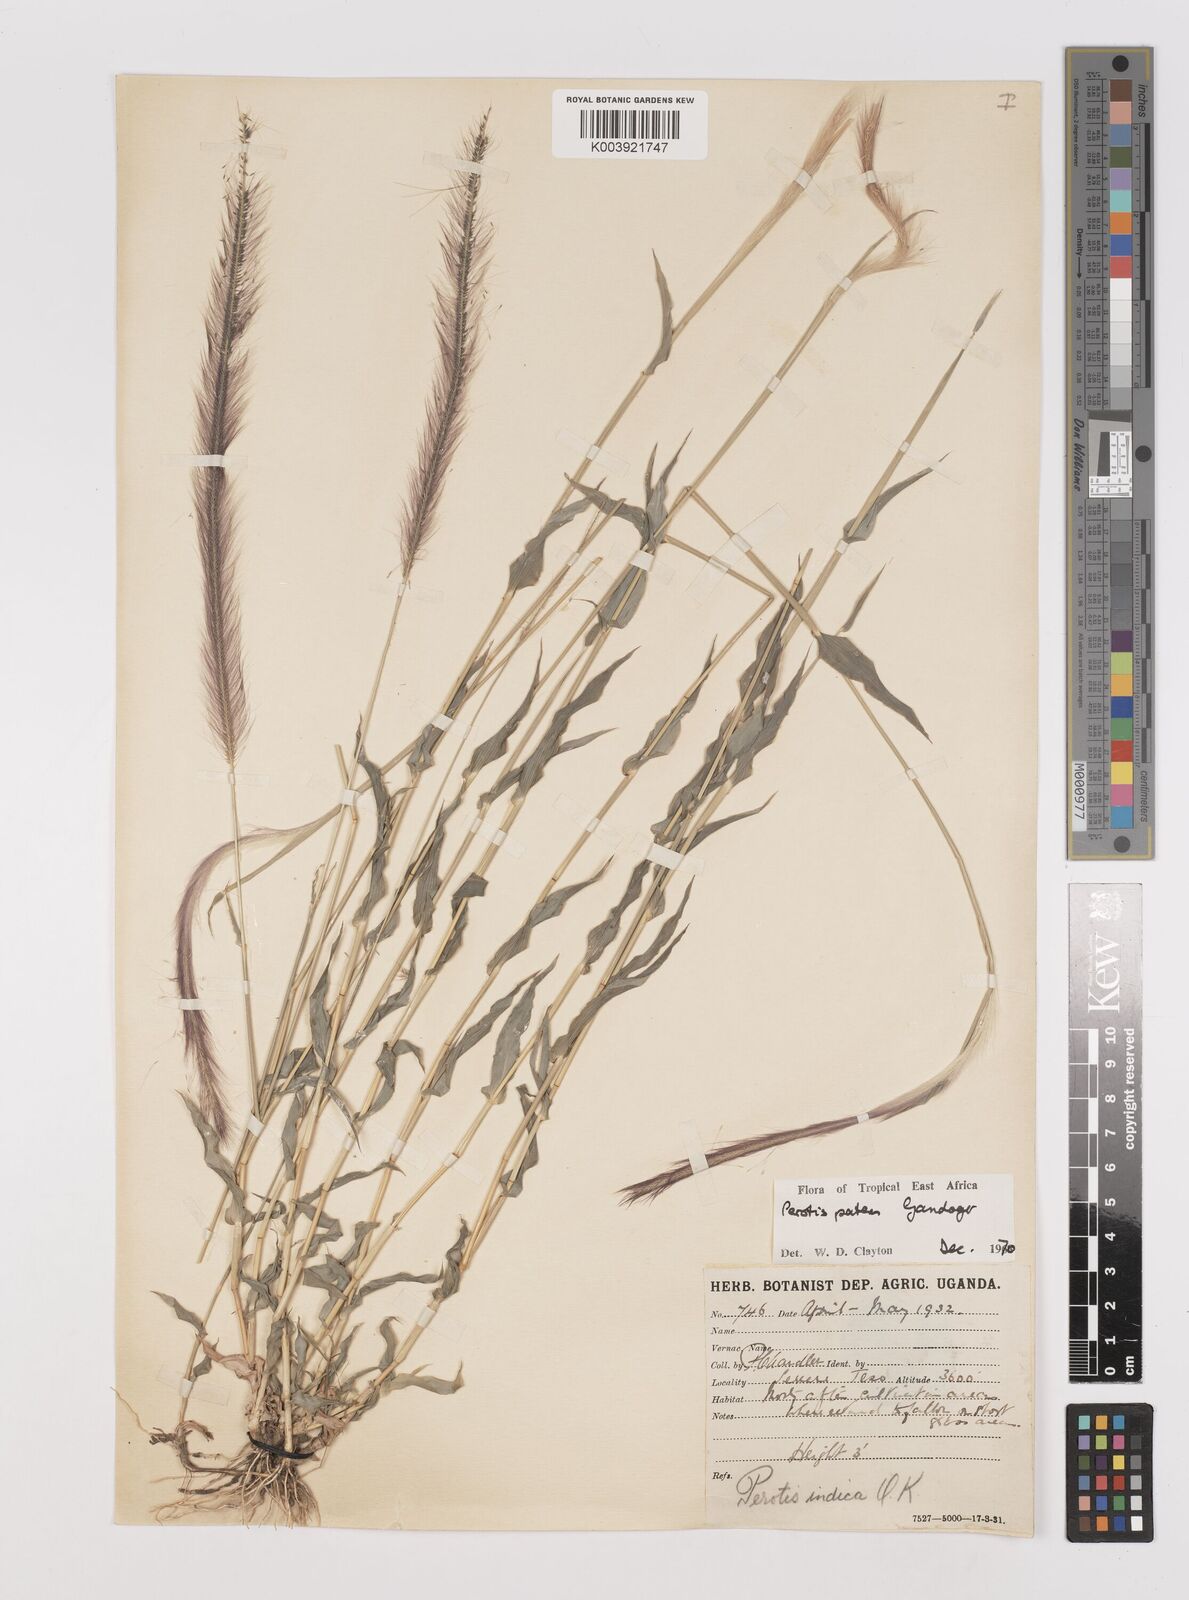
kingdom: Plantae
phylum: Tracheophyta
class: Liliopsida
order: Poales
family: Poaceae
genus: Perotis
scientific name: Perotis patens
